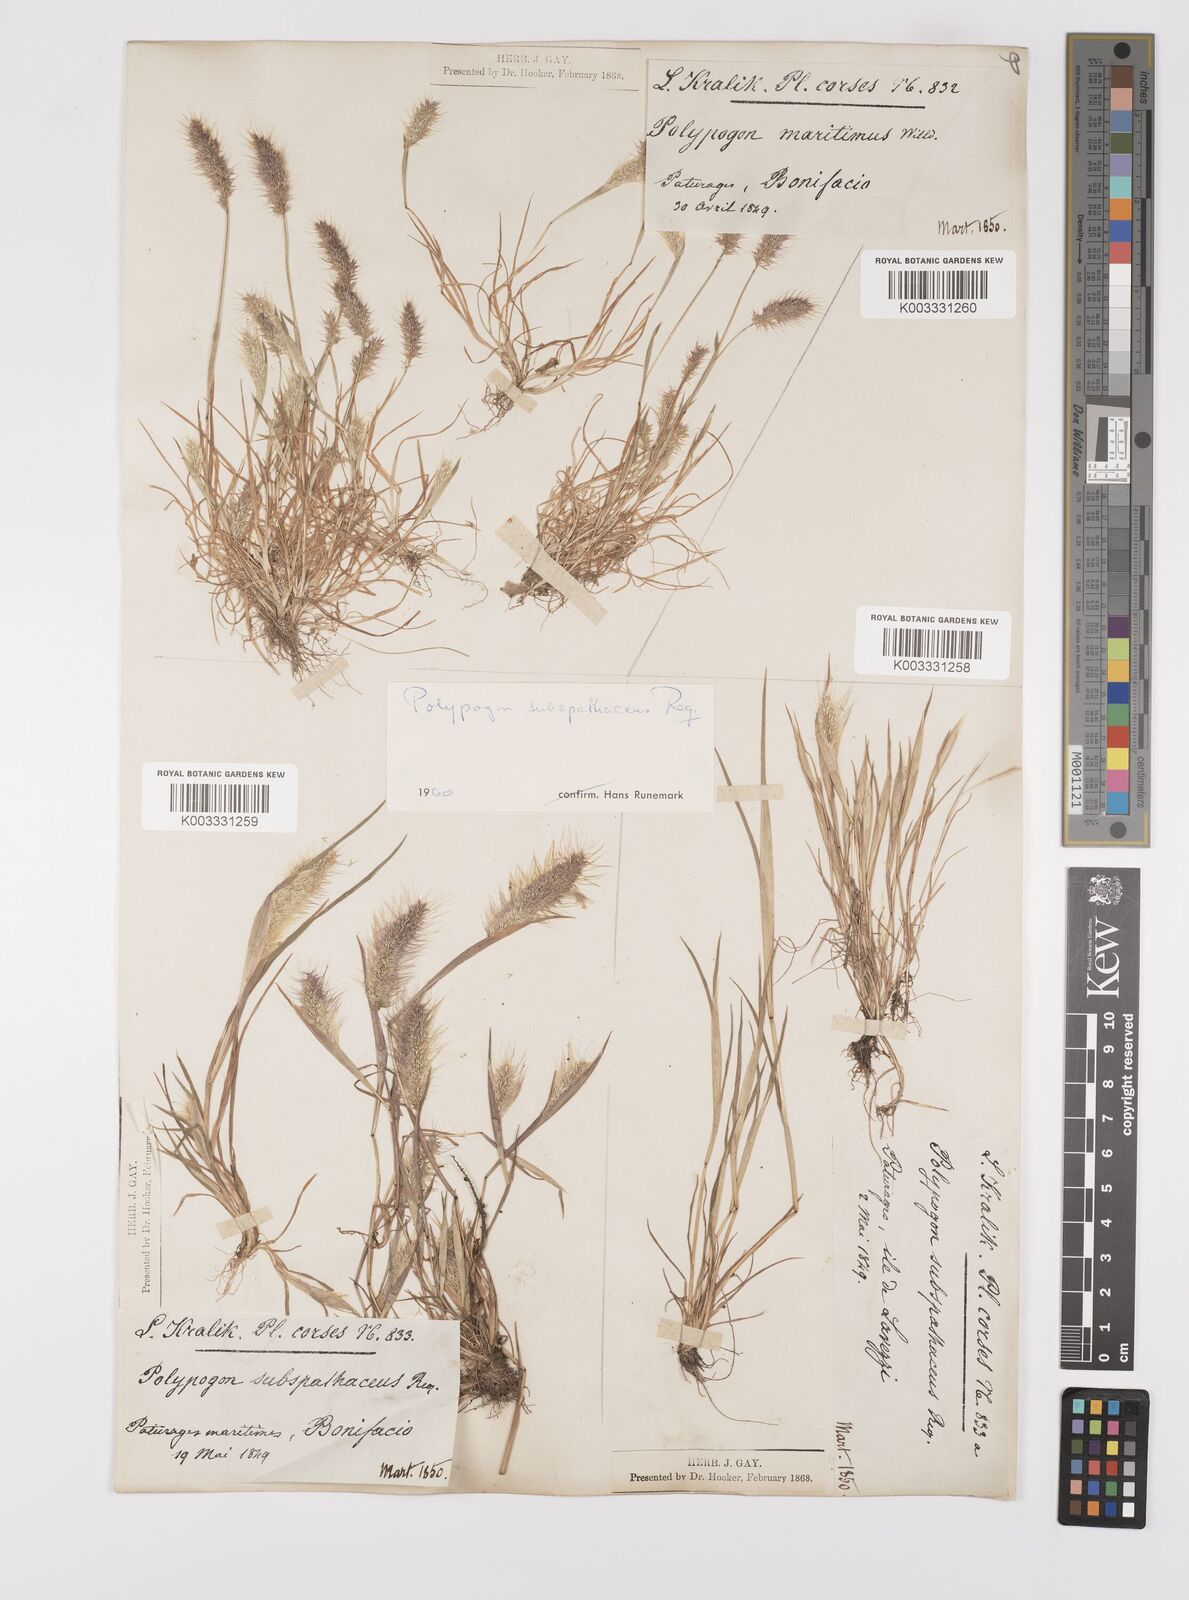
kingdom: Plantae
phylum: Tracheophyta
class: Liliopsida
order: Poales
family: Poaceae
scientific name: Poaceae
